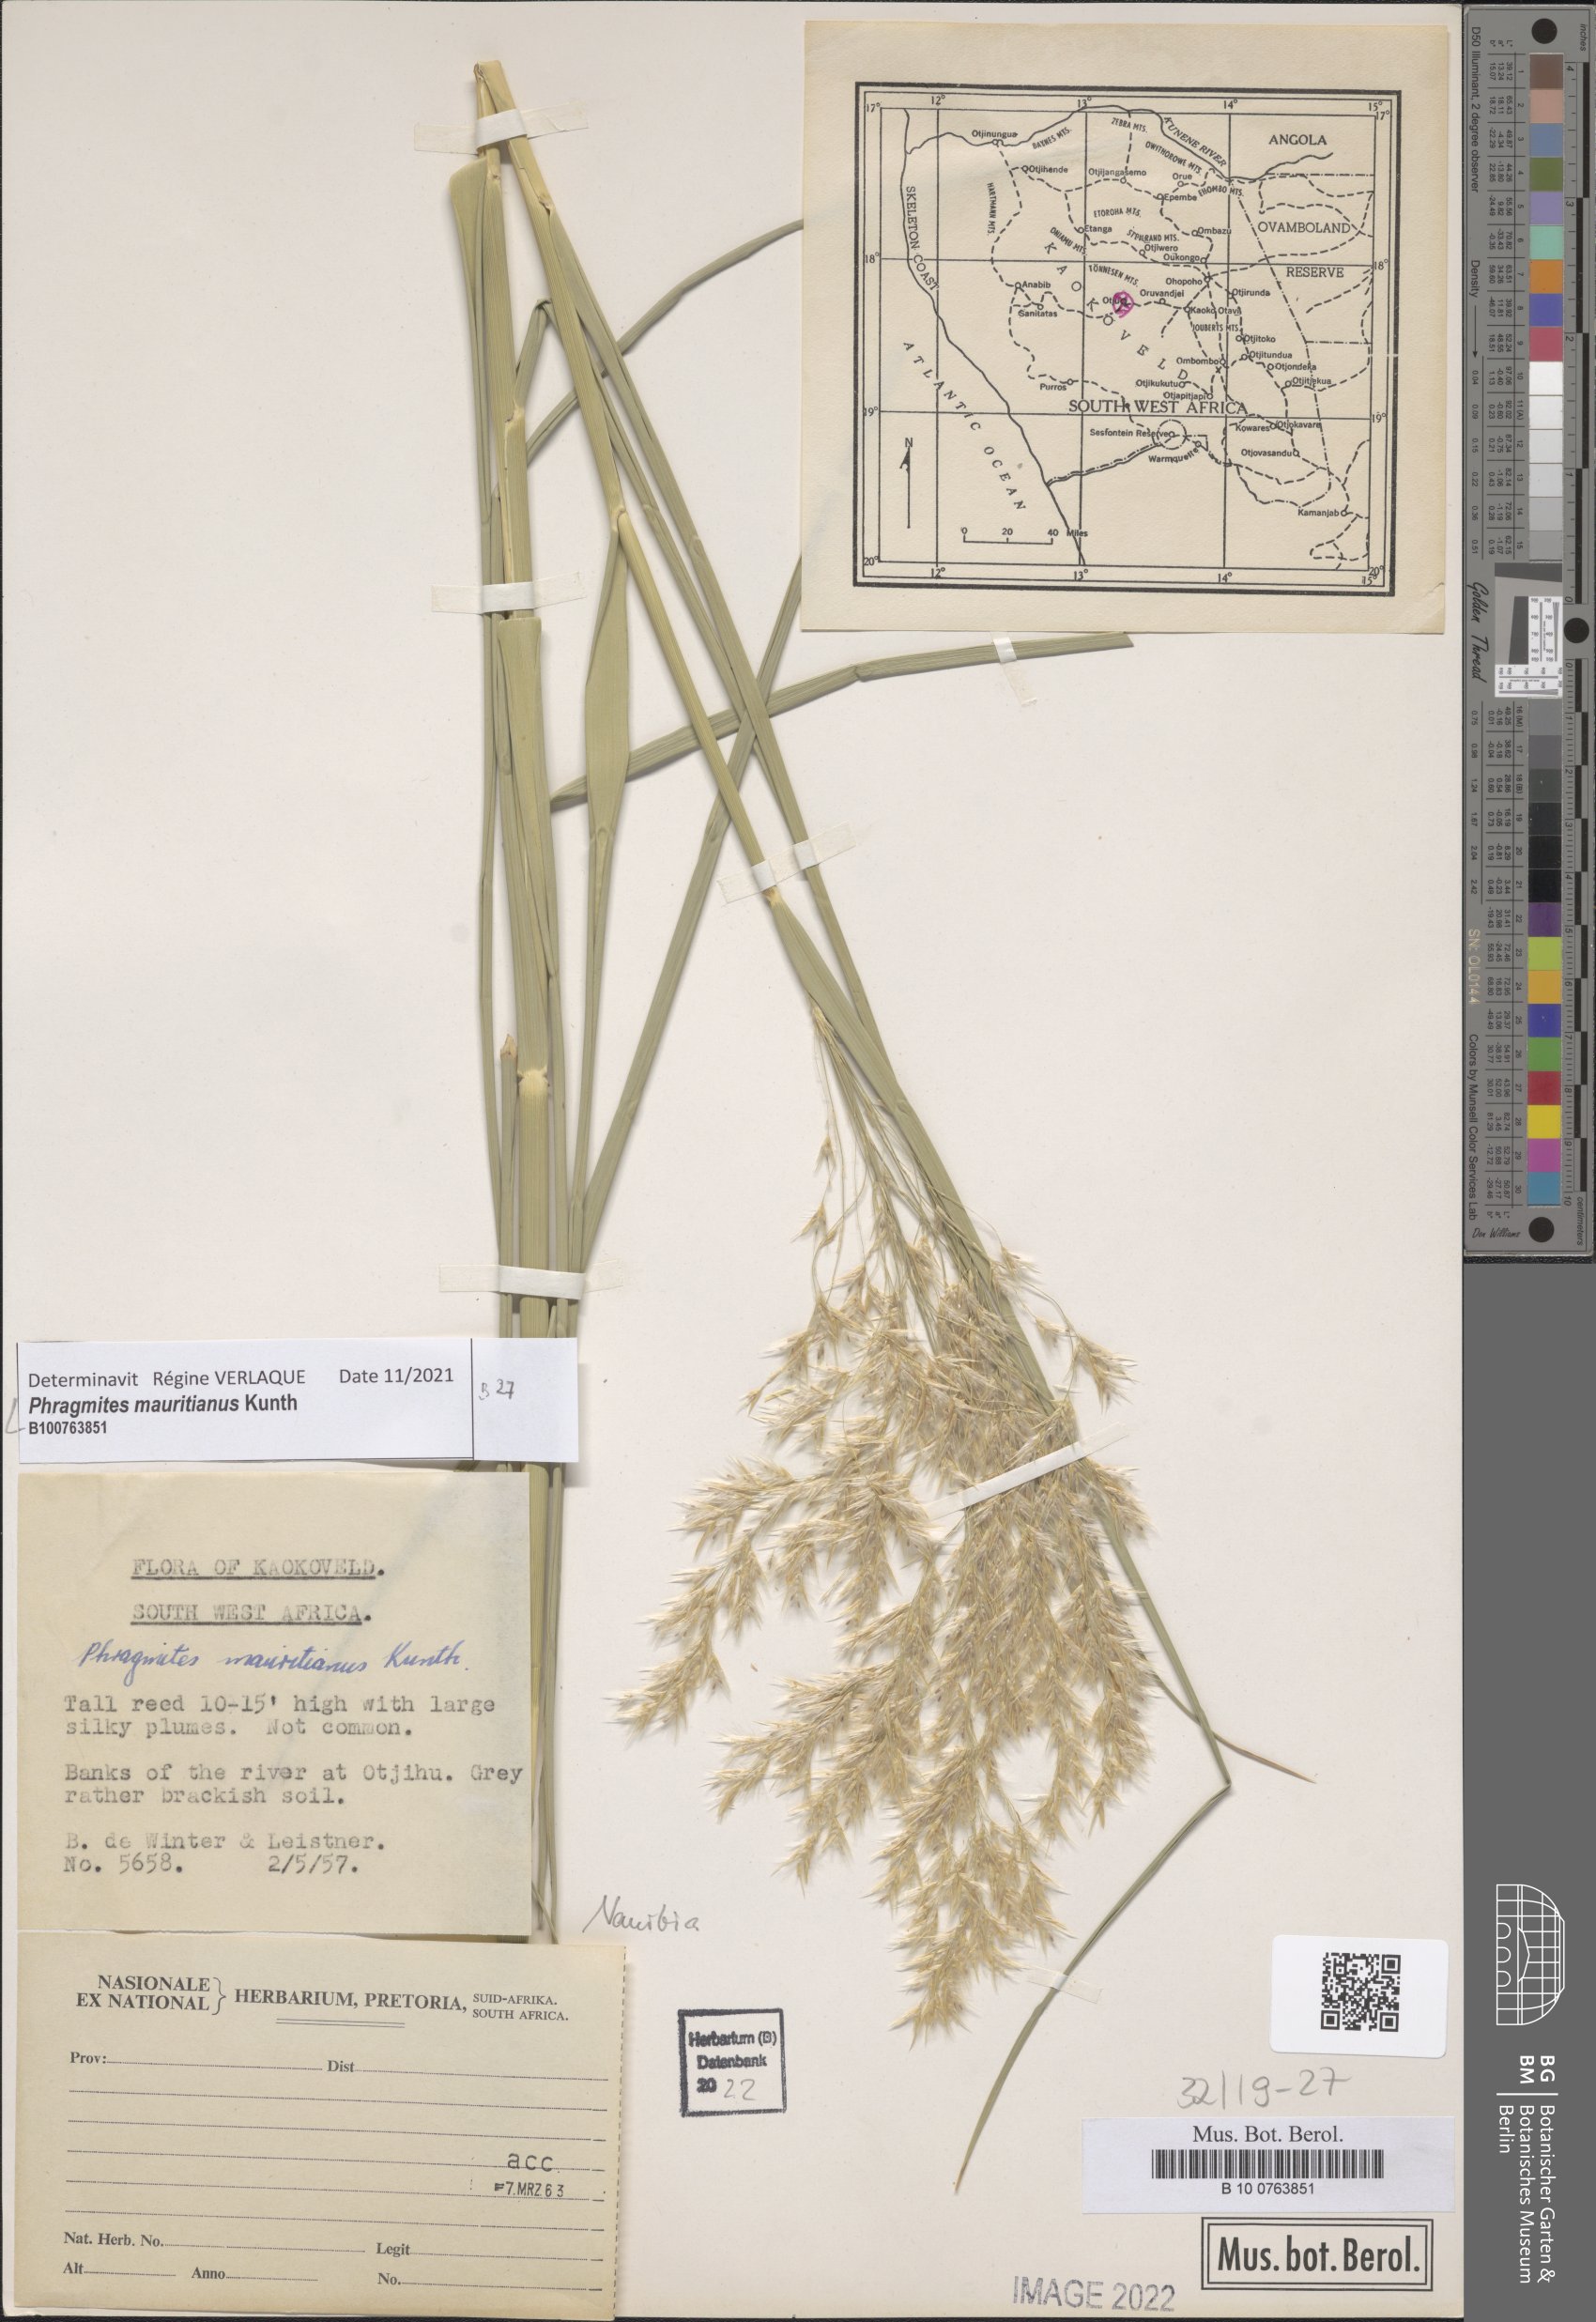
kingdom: Plantae
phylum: Tracheophyta
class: Liliopsida
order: Poales
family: Poaceae
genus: Phragmites
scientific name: Phragmites mauritianus
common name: Reed grass
